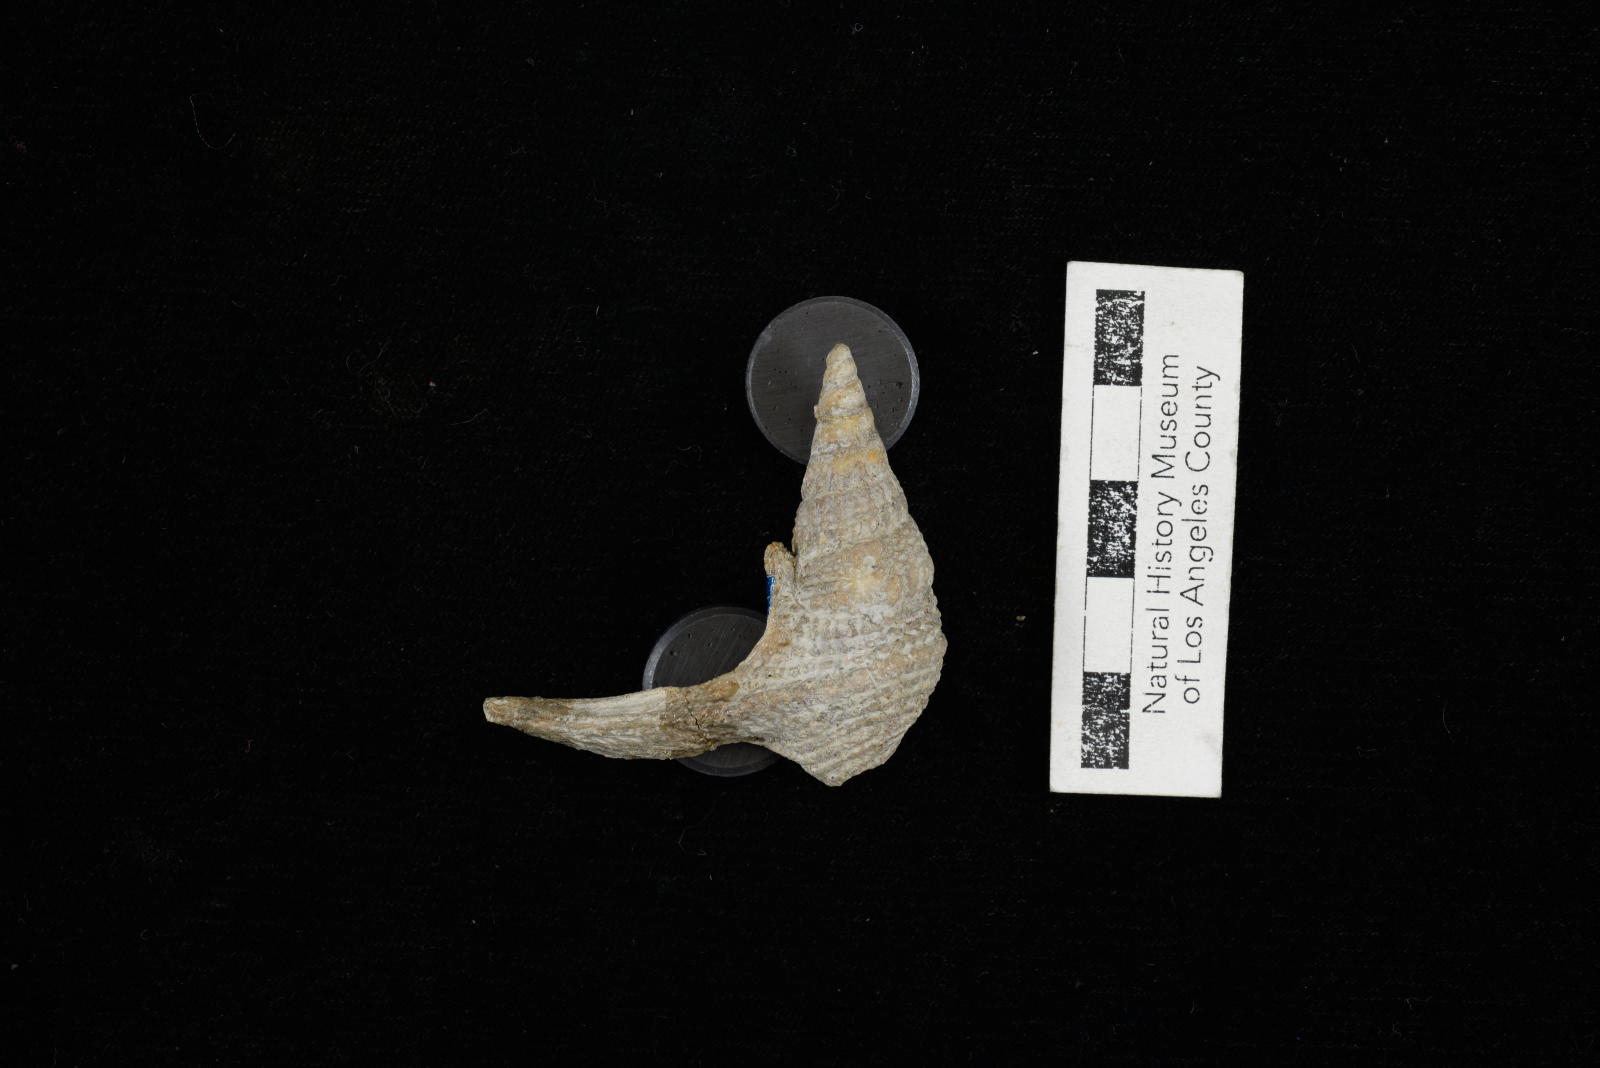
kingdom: Animalia
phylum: Mollusca
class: Gastropoda
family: Procerithiidae
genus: Procerithium
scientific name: Procerithium Uchauxia beali
